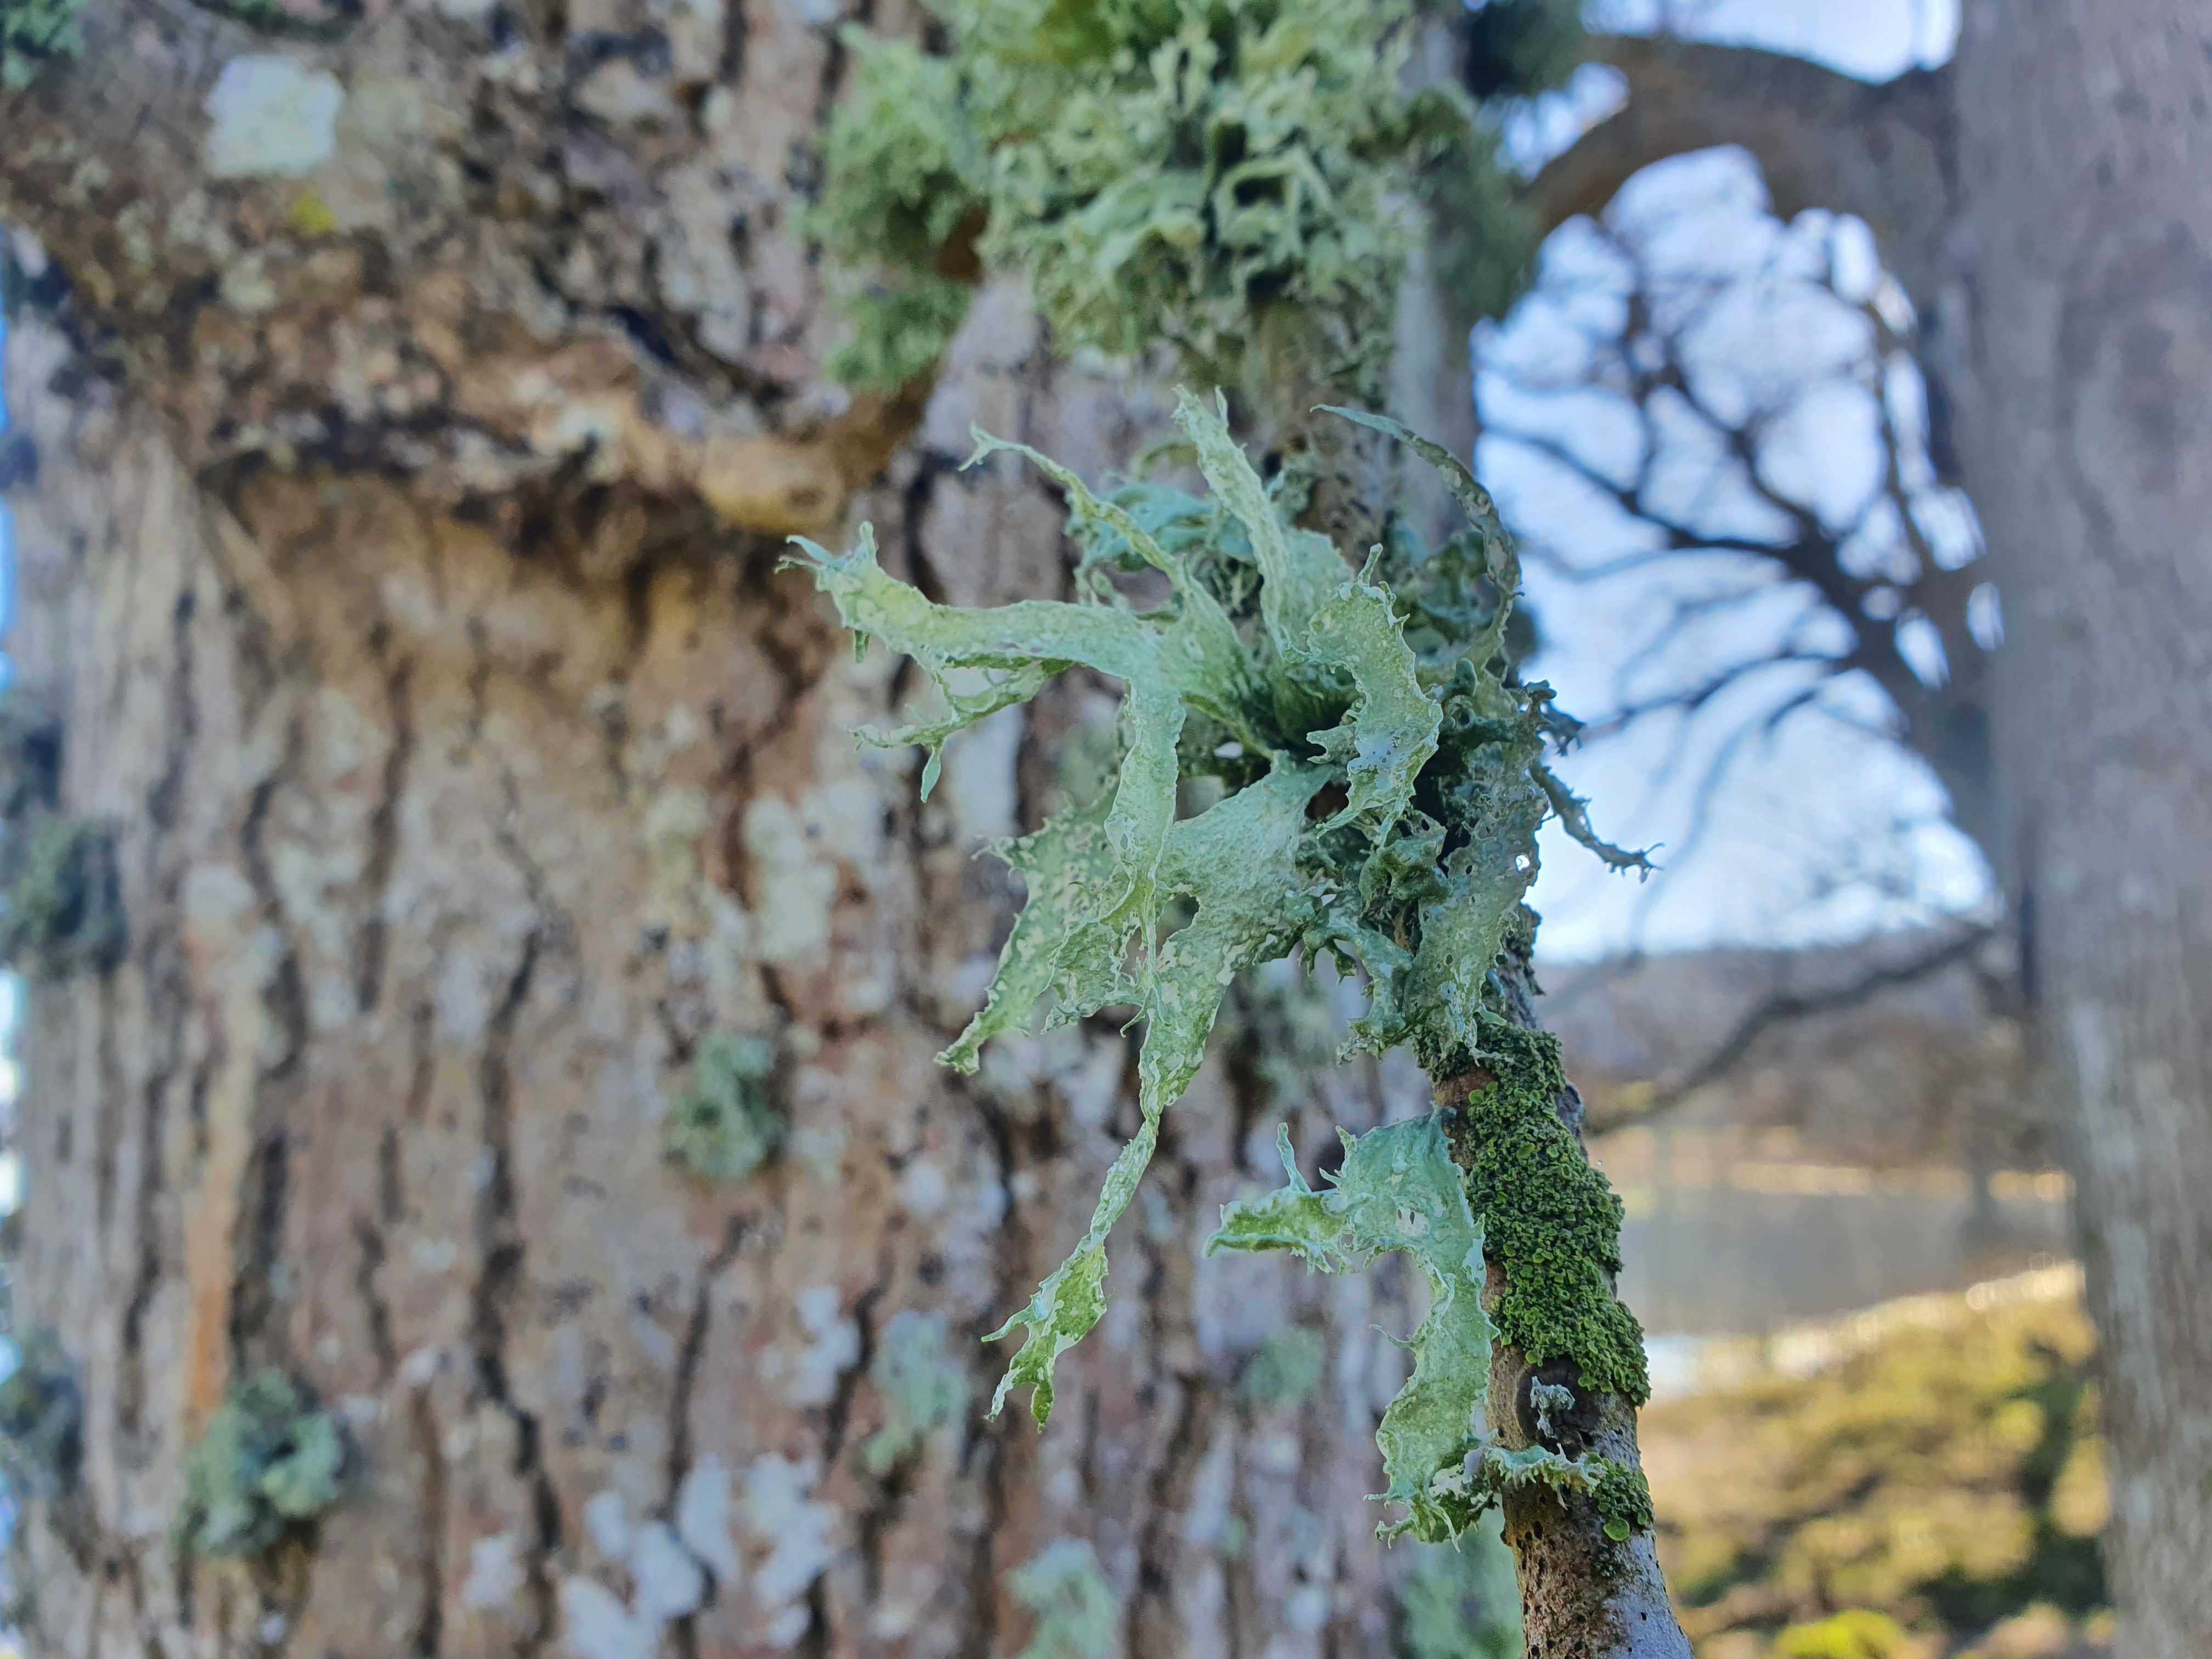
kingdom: Fungi
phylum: Ascomycota
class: Lecanoromycetes
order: Lecanorales
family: Ramalinaceae
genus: Ramalina
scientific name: Ramalina fraxinea
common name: stor grenlav
